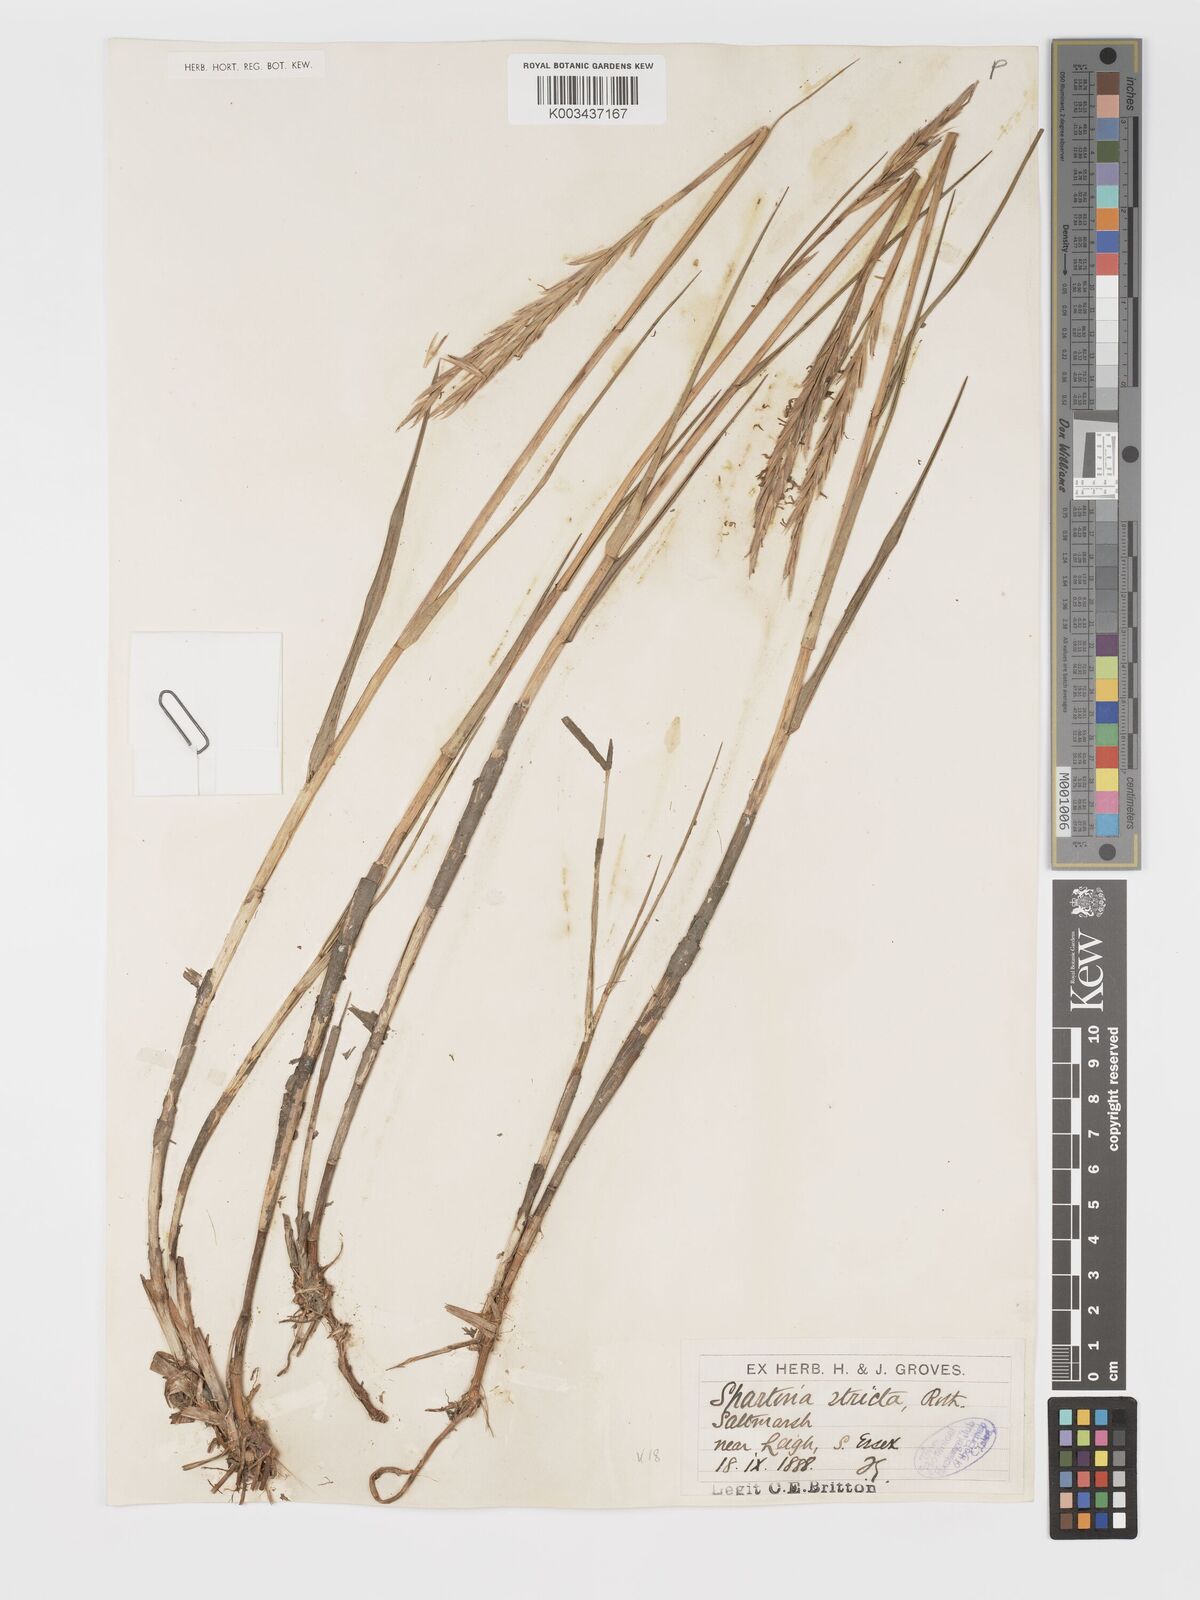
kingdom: Plantae
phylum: Tracheophyta
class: Liliopsida
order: Poales
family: Poaceae
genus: Sporobolus
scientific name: Sporobolus maritimus
